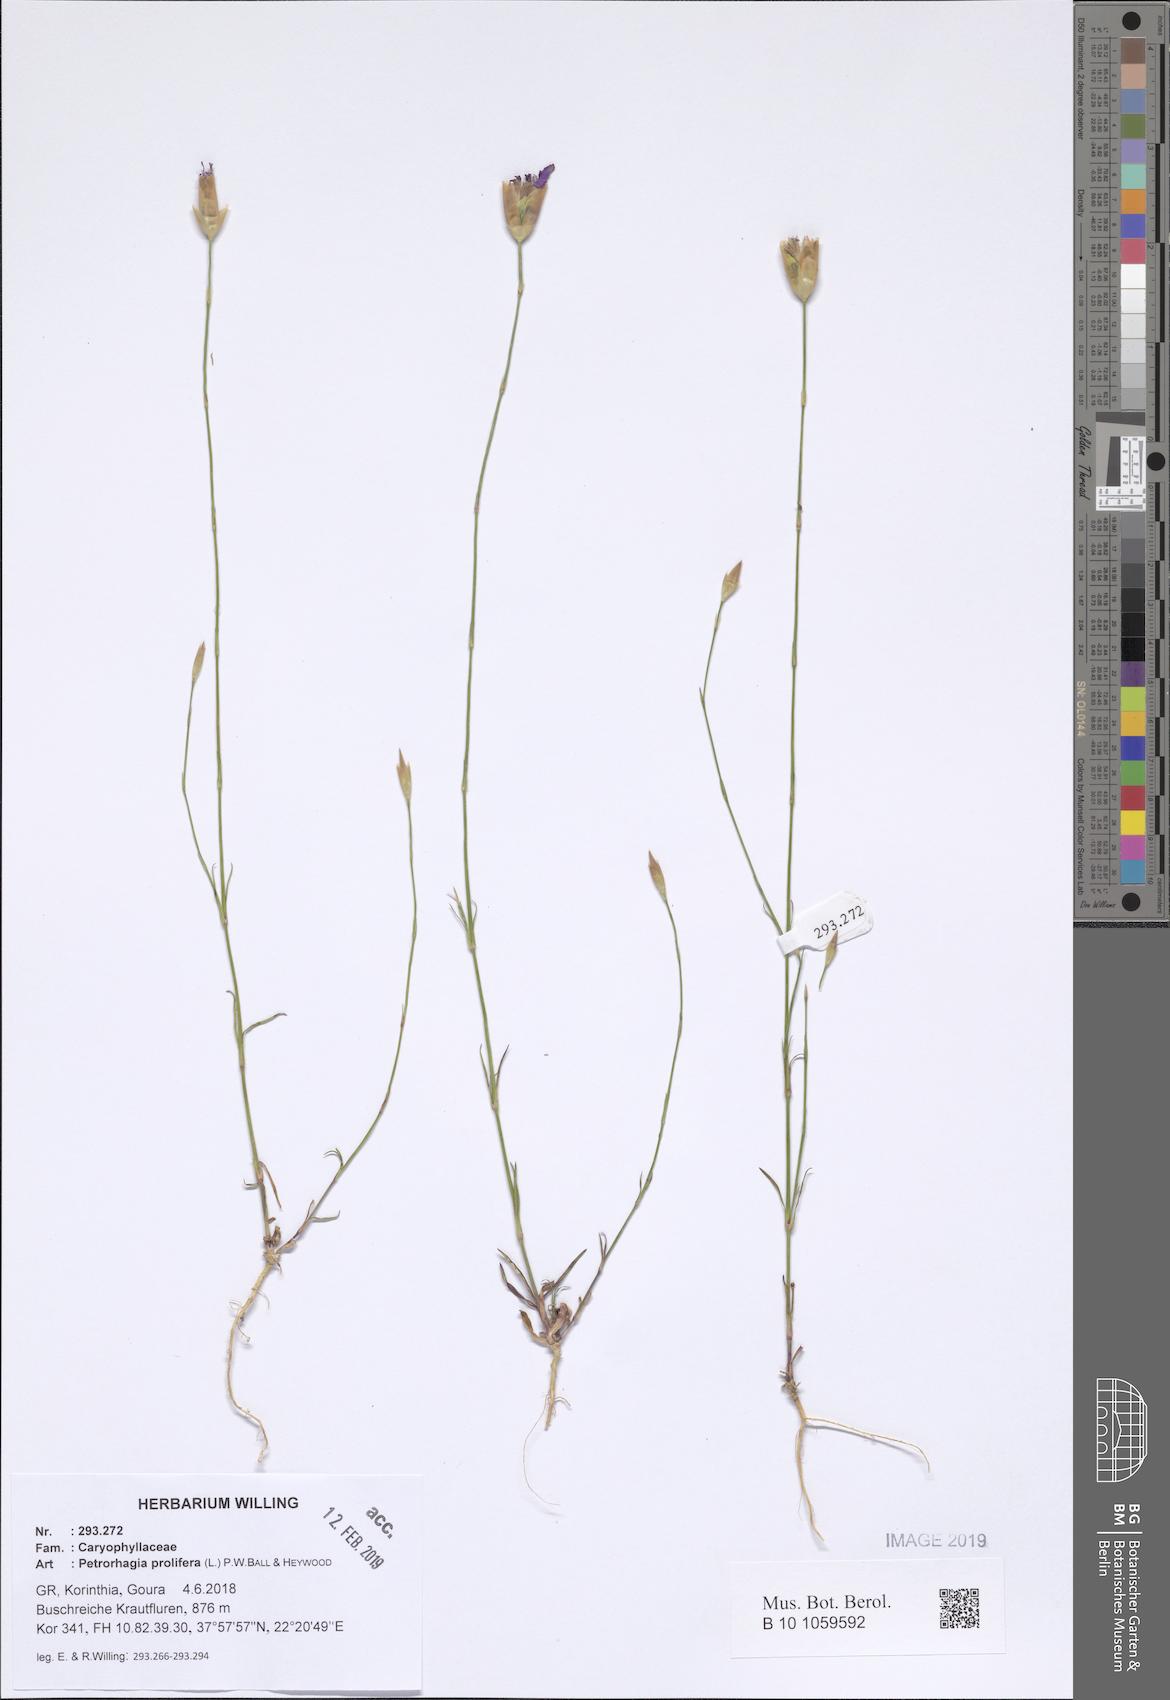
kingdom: Plantae
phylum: Tracheophyta
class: Magnoliopsida
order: Caryophyllales
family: Caryophyllaceae
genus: Petrorhagia
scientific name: Petrorhagia prolifera
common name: Proliferous pink
